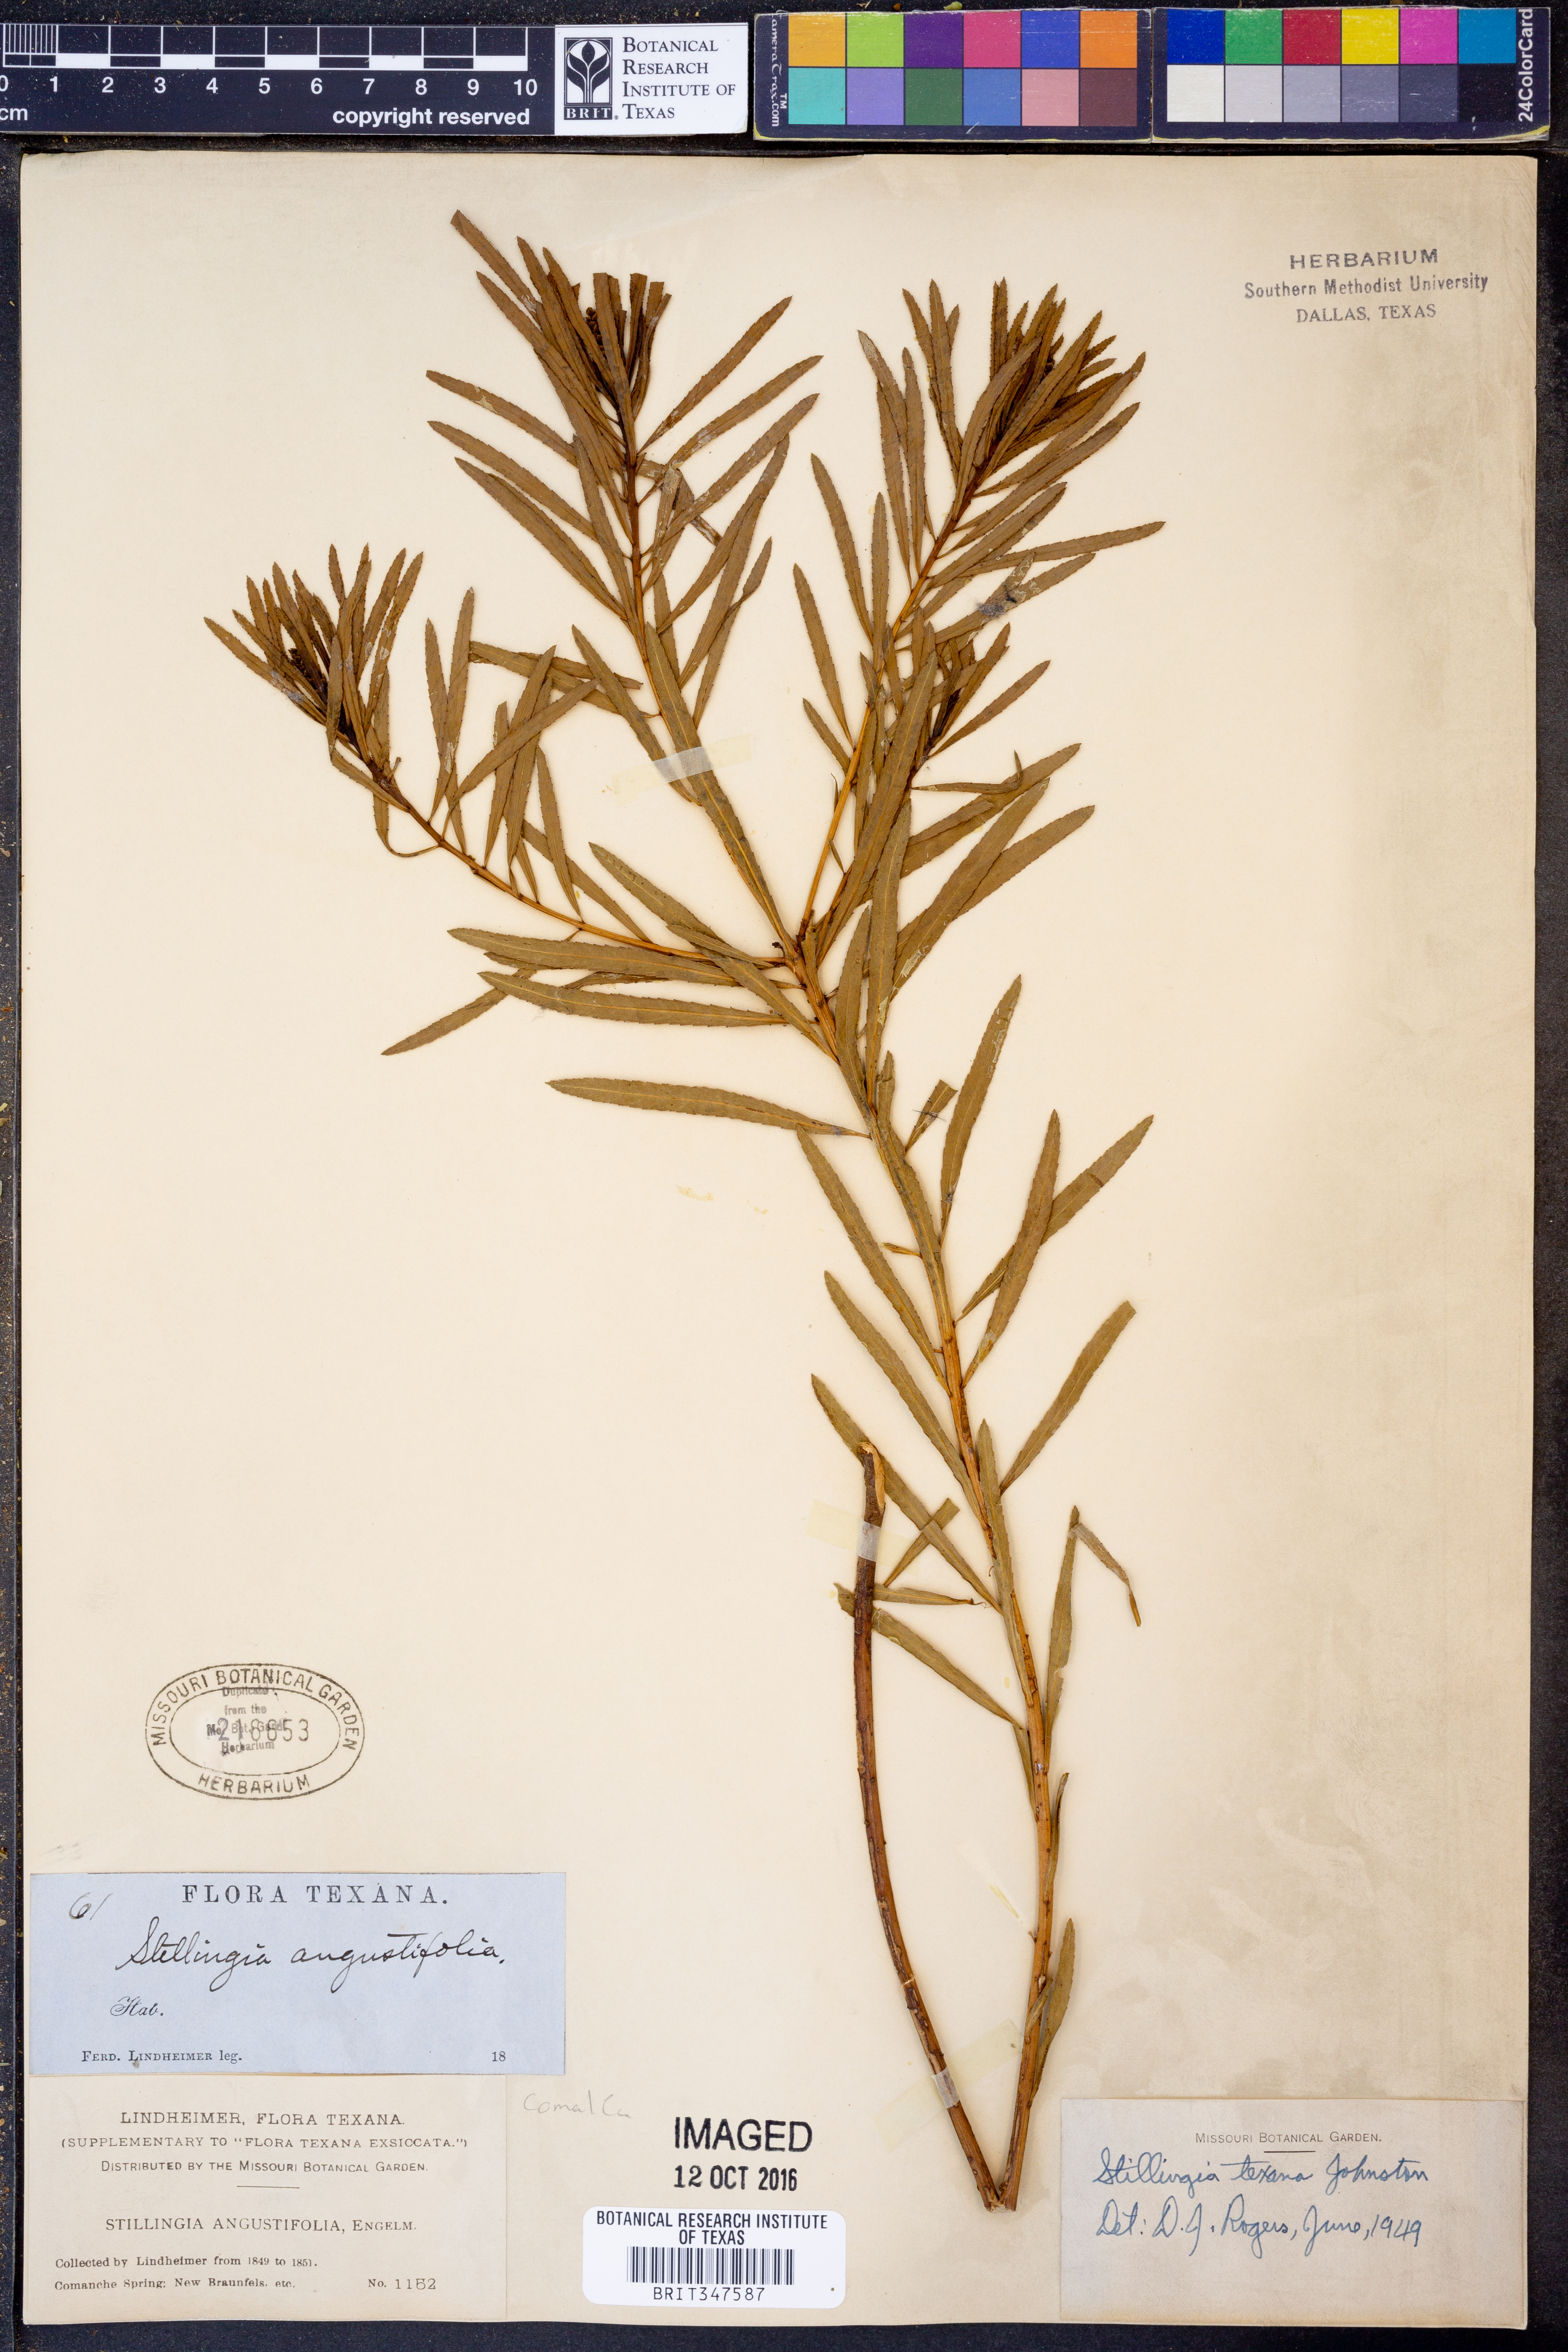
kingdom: Plantae
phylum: Tracheophyta
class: Magnoliopsida
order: Malpighiales
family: Euphorbiaceae
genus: Stillingia
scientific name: Stillingia texana
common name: Texas stillingia
